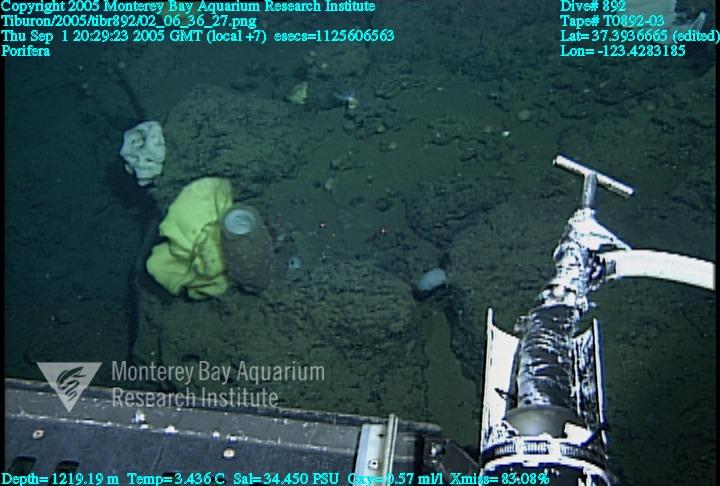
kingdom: Animalia
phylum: Porifera
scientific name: Porifera
